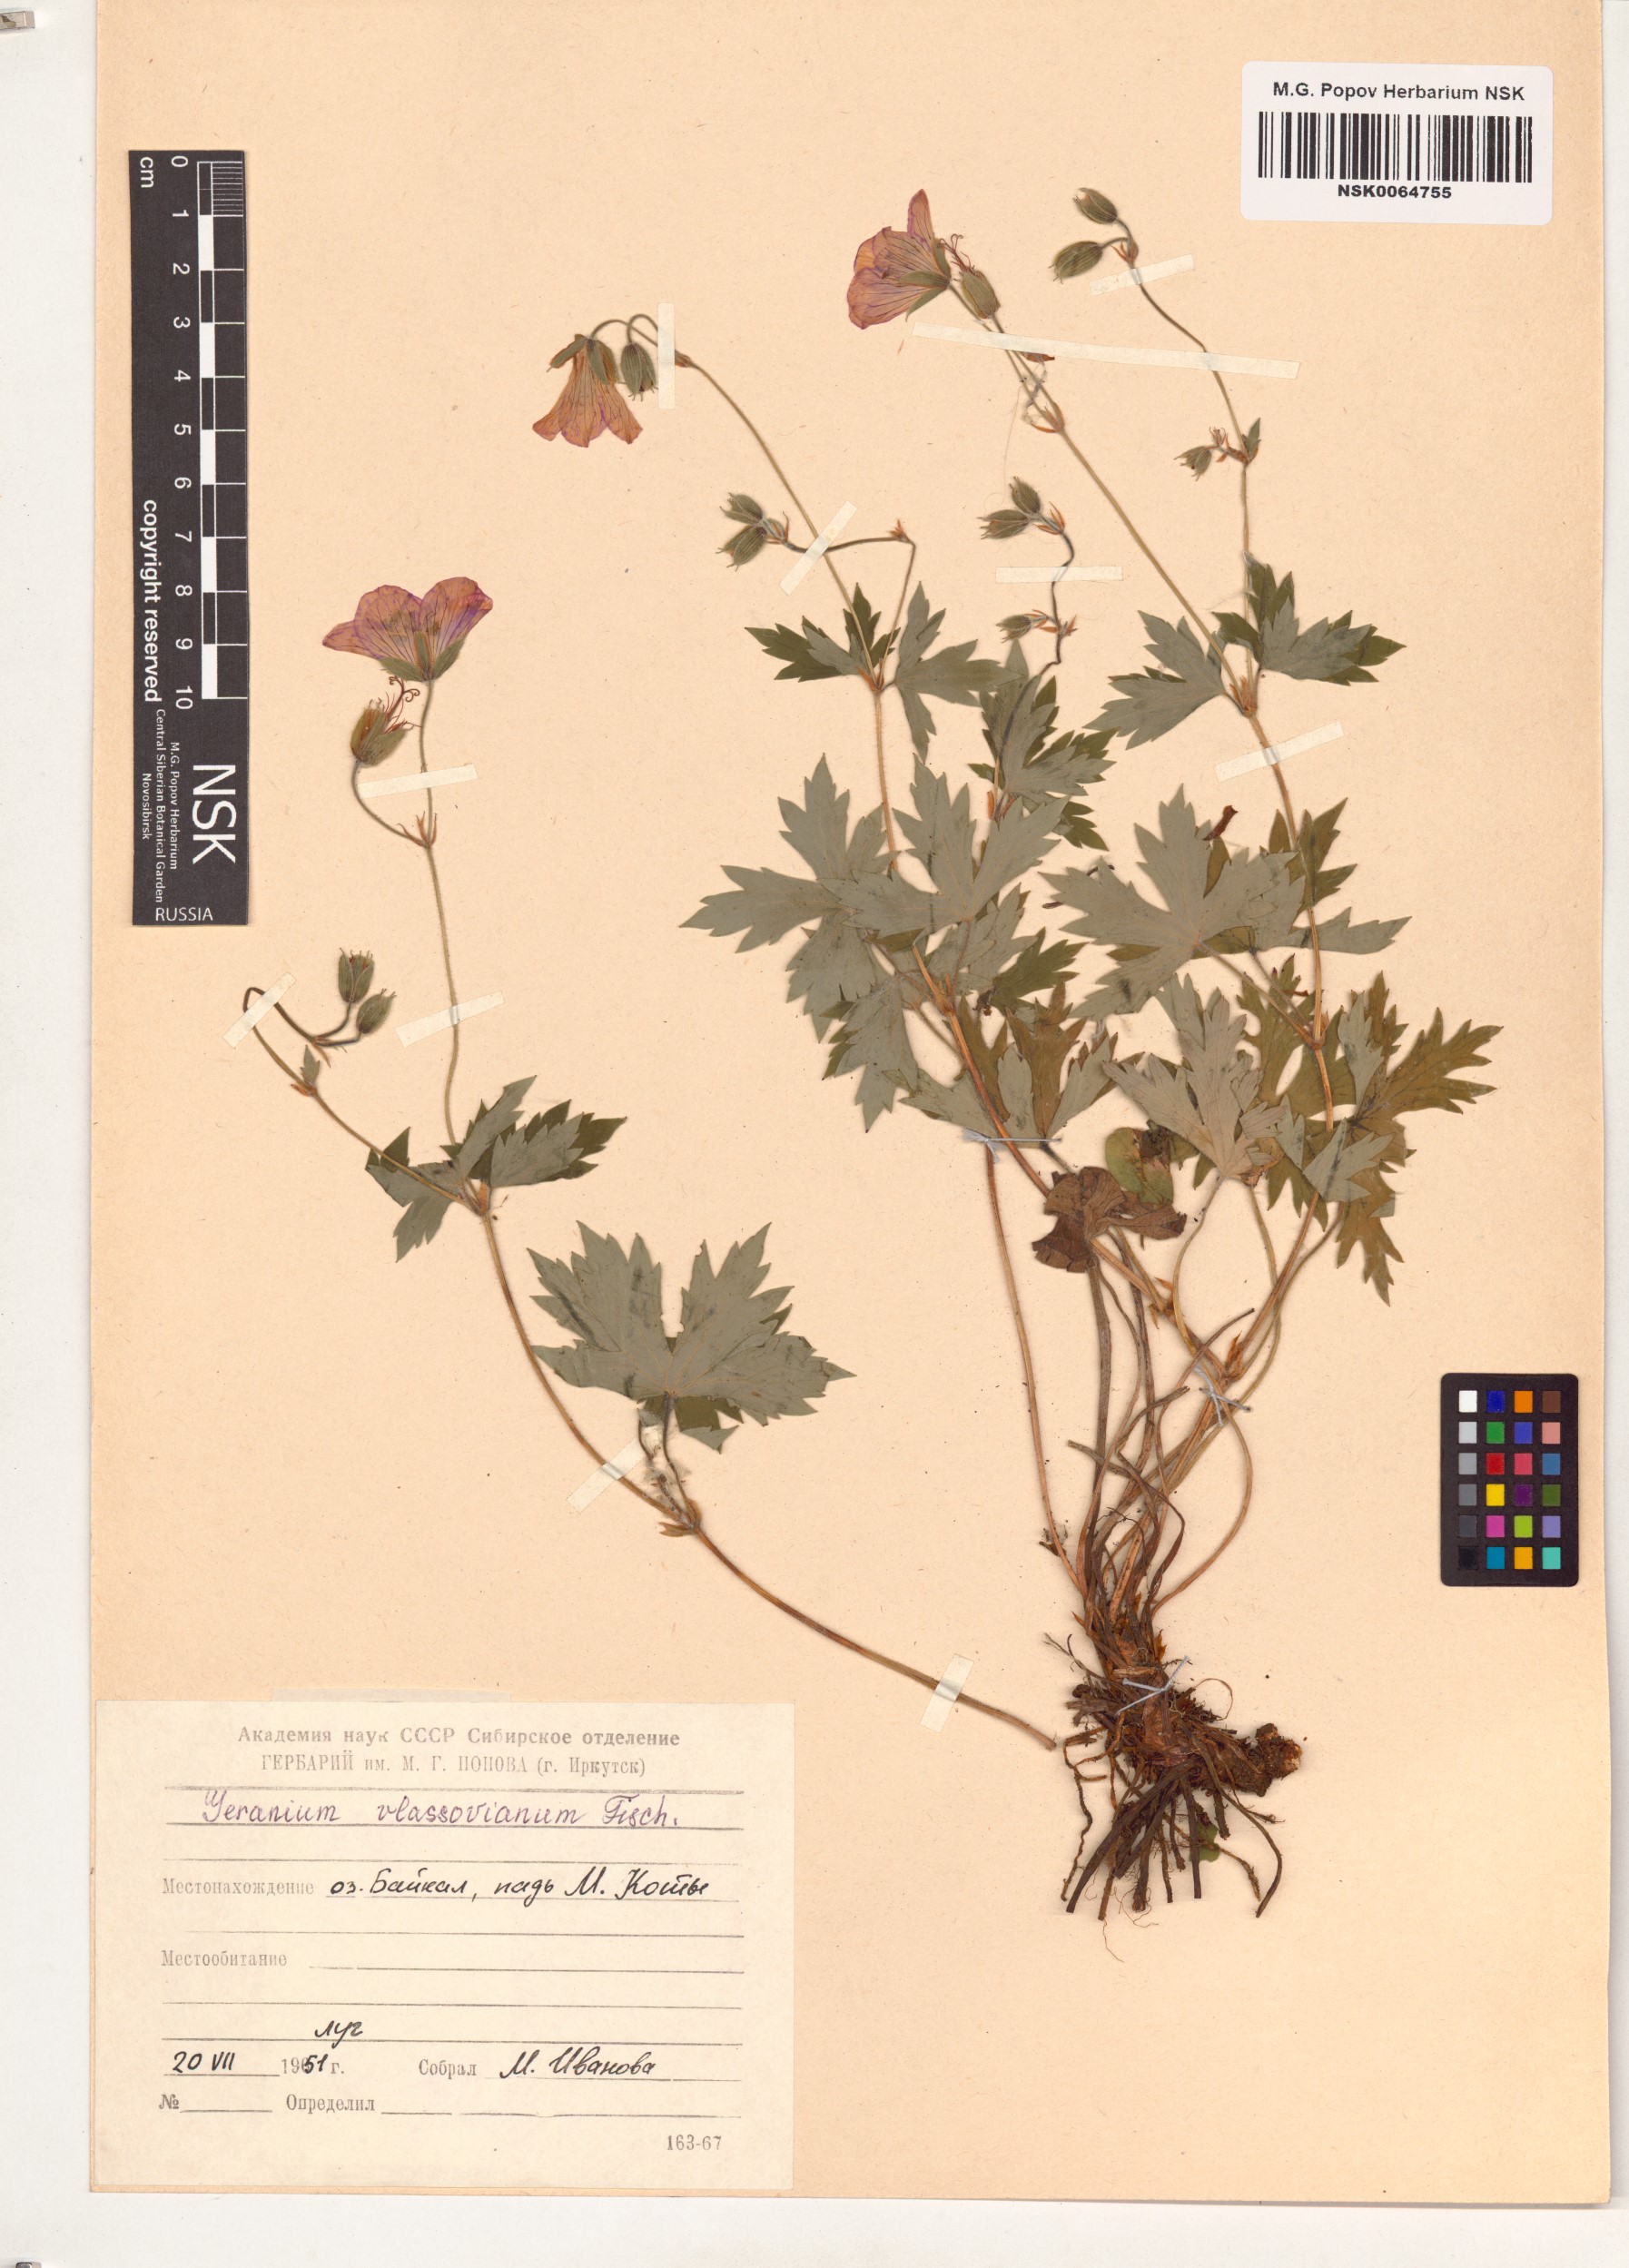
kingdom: Plantae
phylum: Tracheophyta
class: Magnoliopsida
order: Geraniales
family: Geraniaceae
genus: Geranium
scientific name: Geranium wlassovianum
